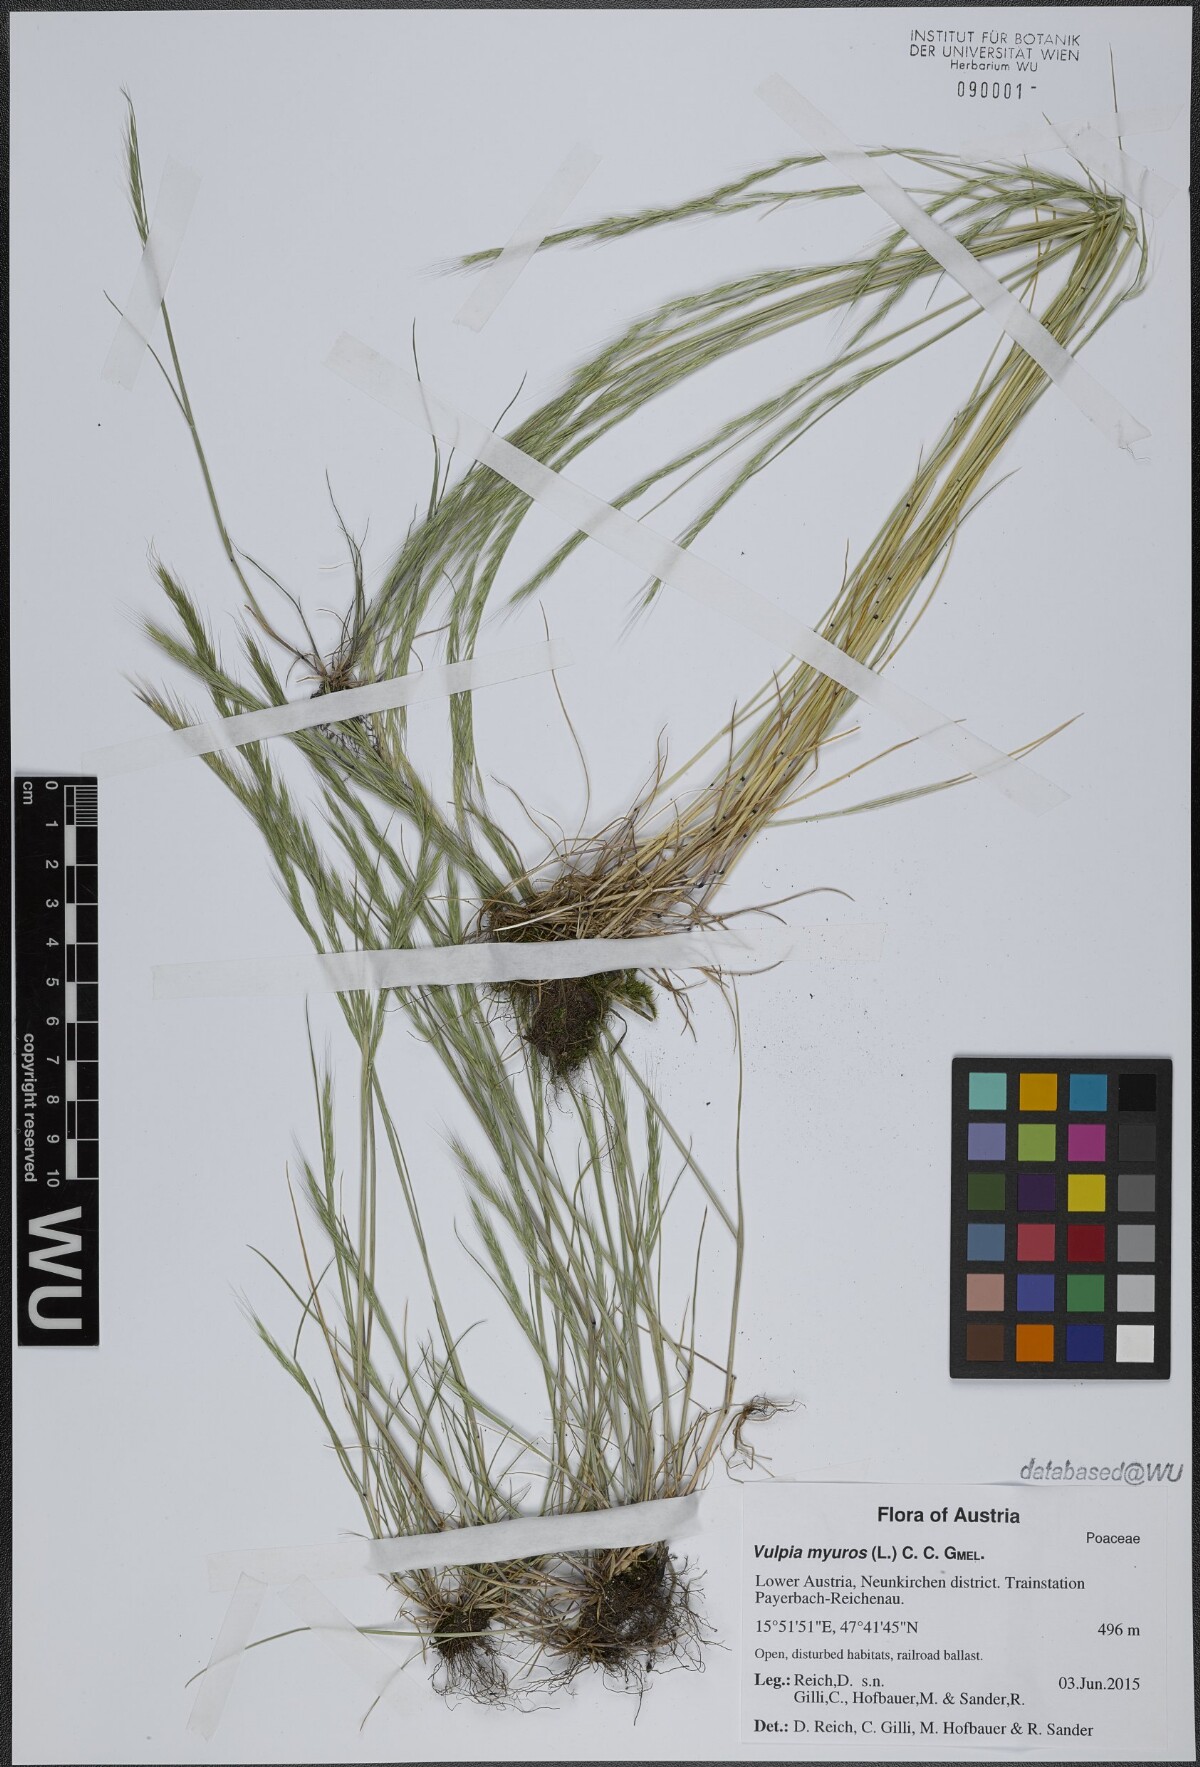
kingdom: Plantae
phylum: Tracheophyta
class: Liliopsida
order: Poales
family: Poaceae
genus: Festuca
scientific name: Festuca myuros
